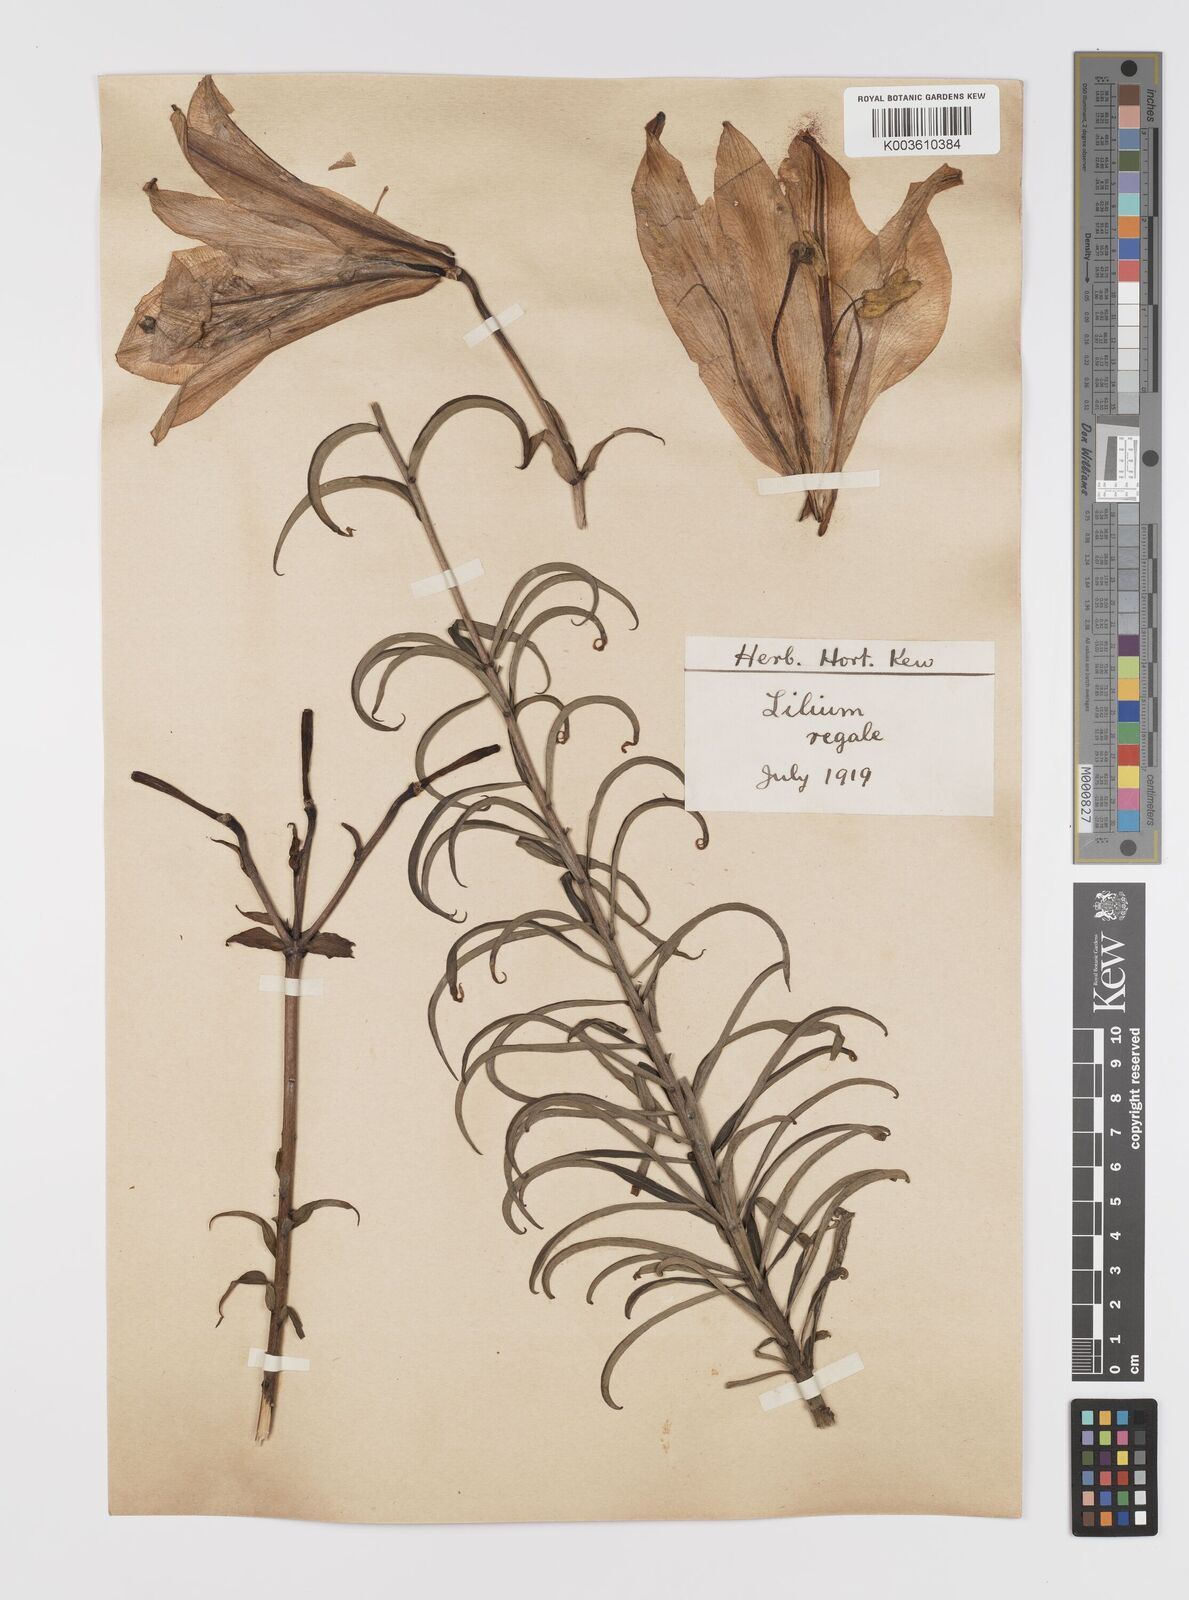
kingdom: Plantae
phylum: Tracheophyta
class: Liliopsida
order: Liliales
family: Liliaceae
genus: Lilium
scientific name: Lilium regale
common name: Regal lily
